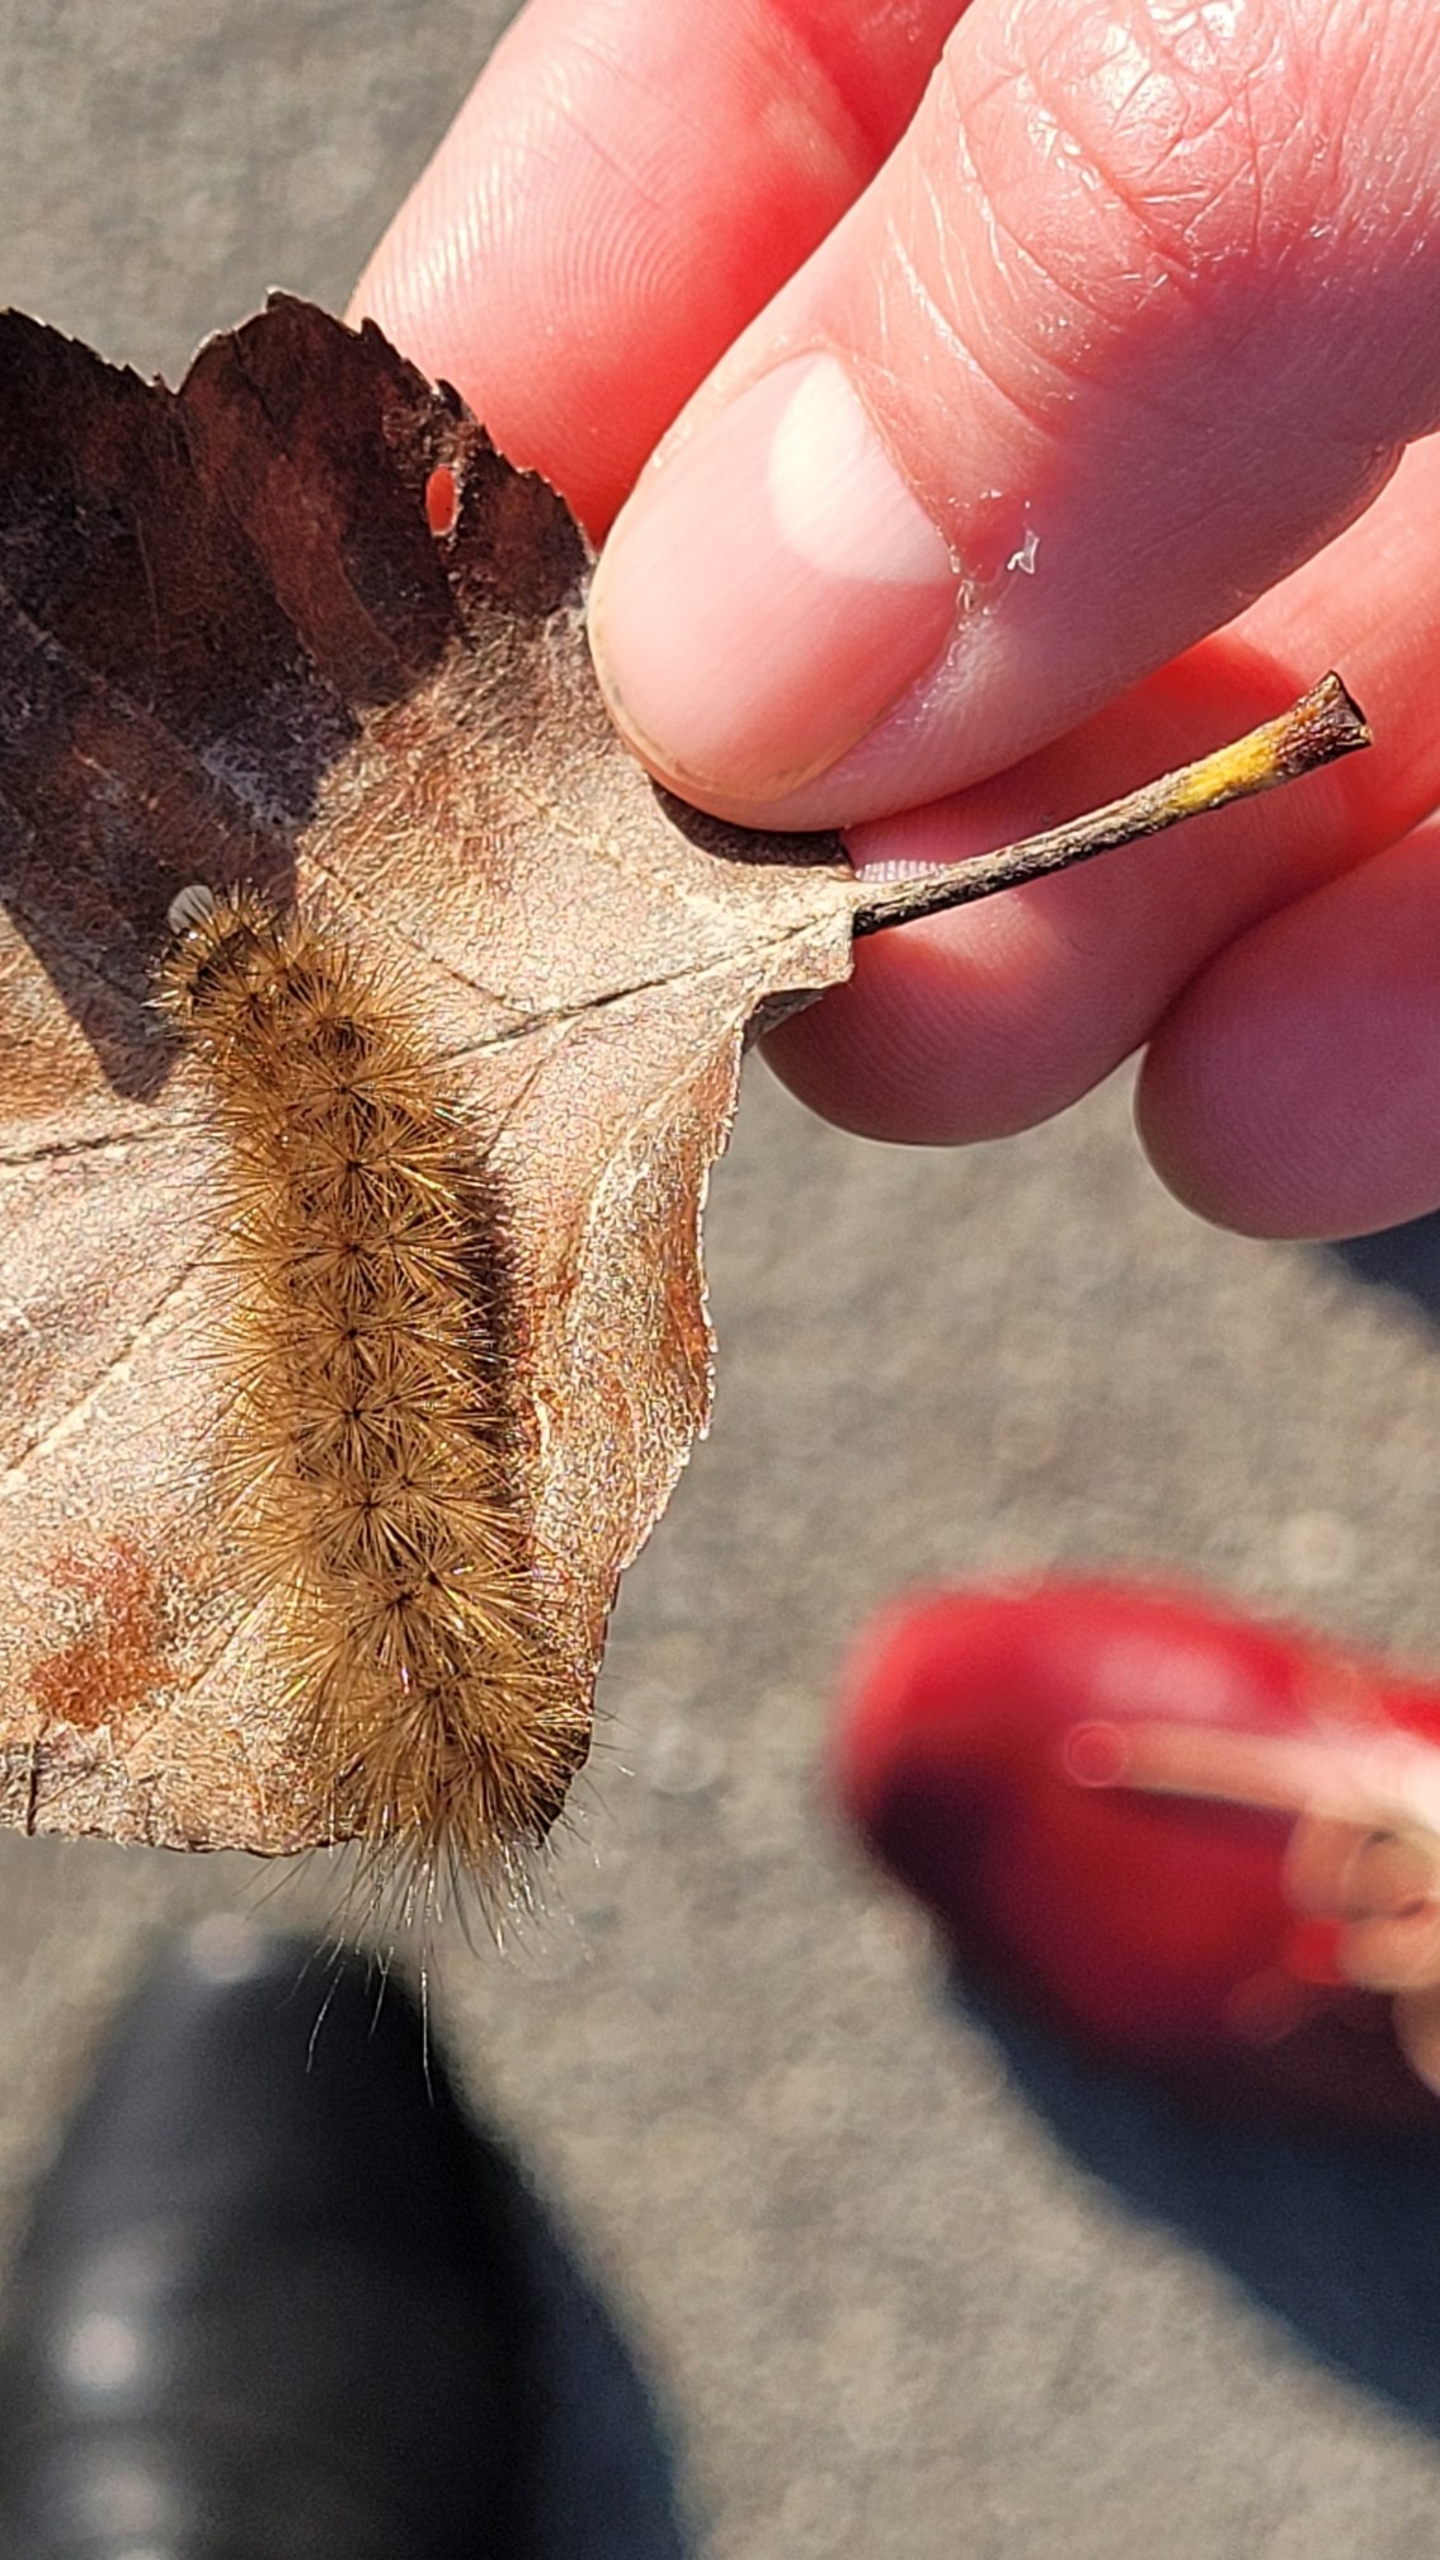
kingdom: Animalia
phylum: Arthropoda
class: Insecta
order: Lepidoptera
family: Erebidae
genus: Phragmatobia
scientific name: Phragmatobia fuliginosa
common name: Kanelbjørn
